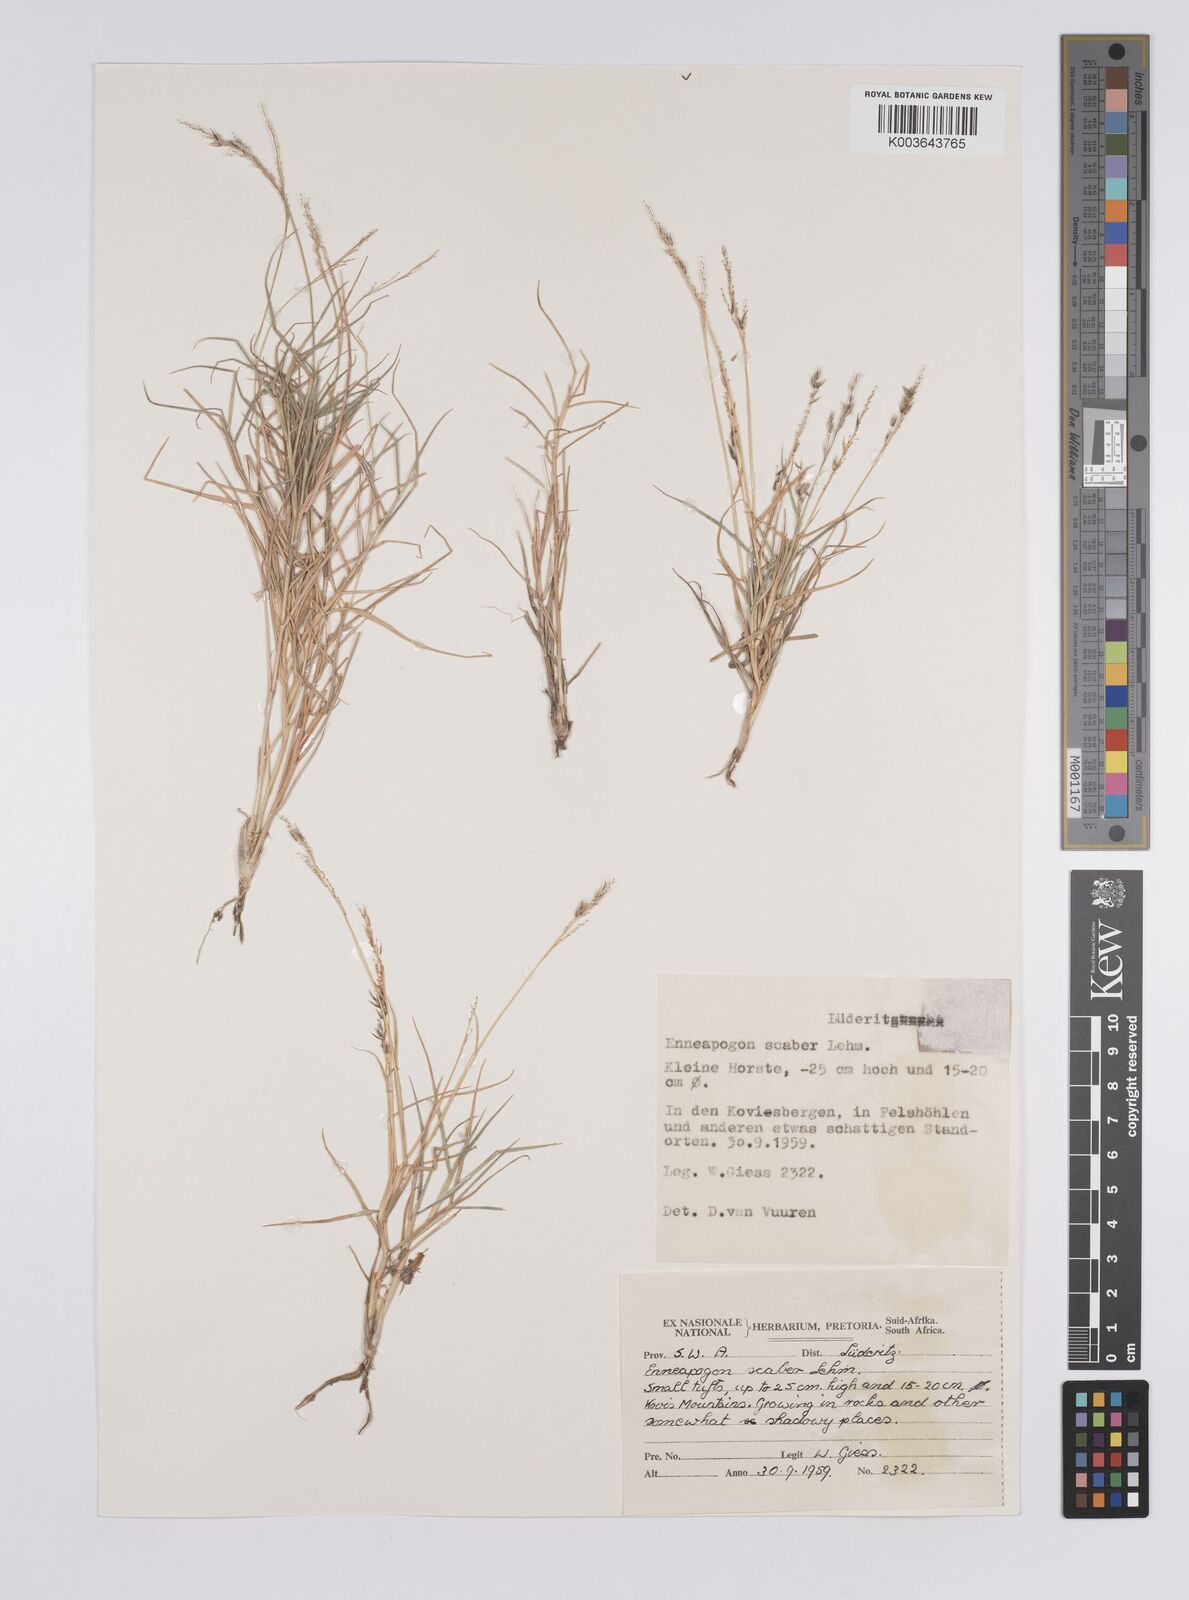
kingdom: Plantae
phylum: Tracheophyta
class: Liliopsida
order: Poales
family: Poaceae
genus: Enneapogon
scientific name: Enneapogon scaber
